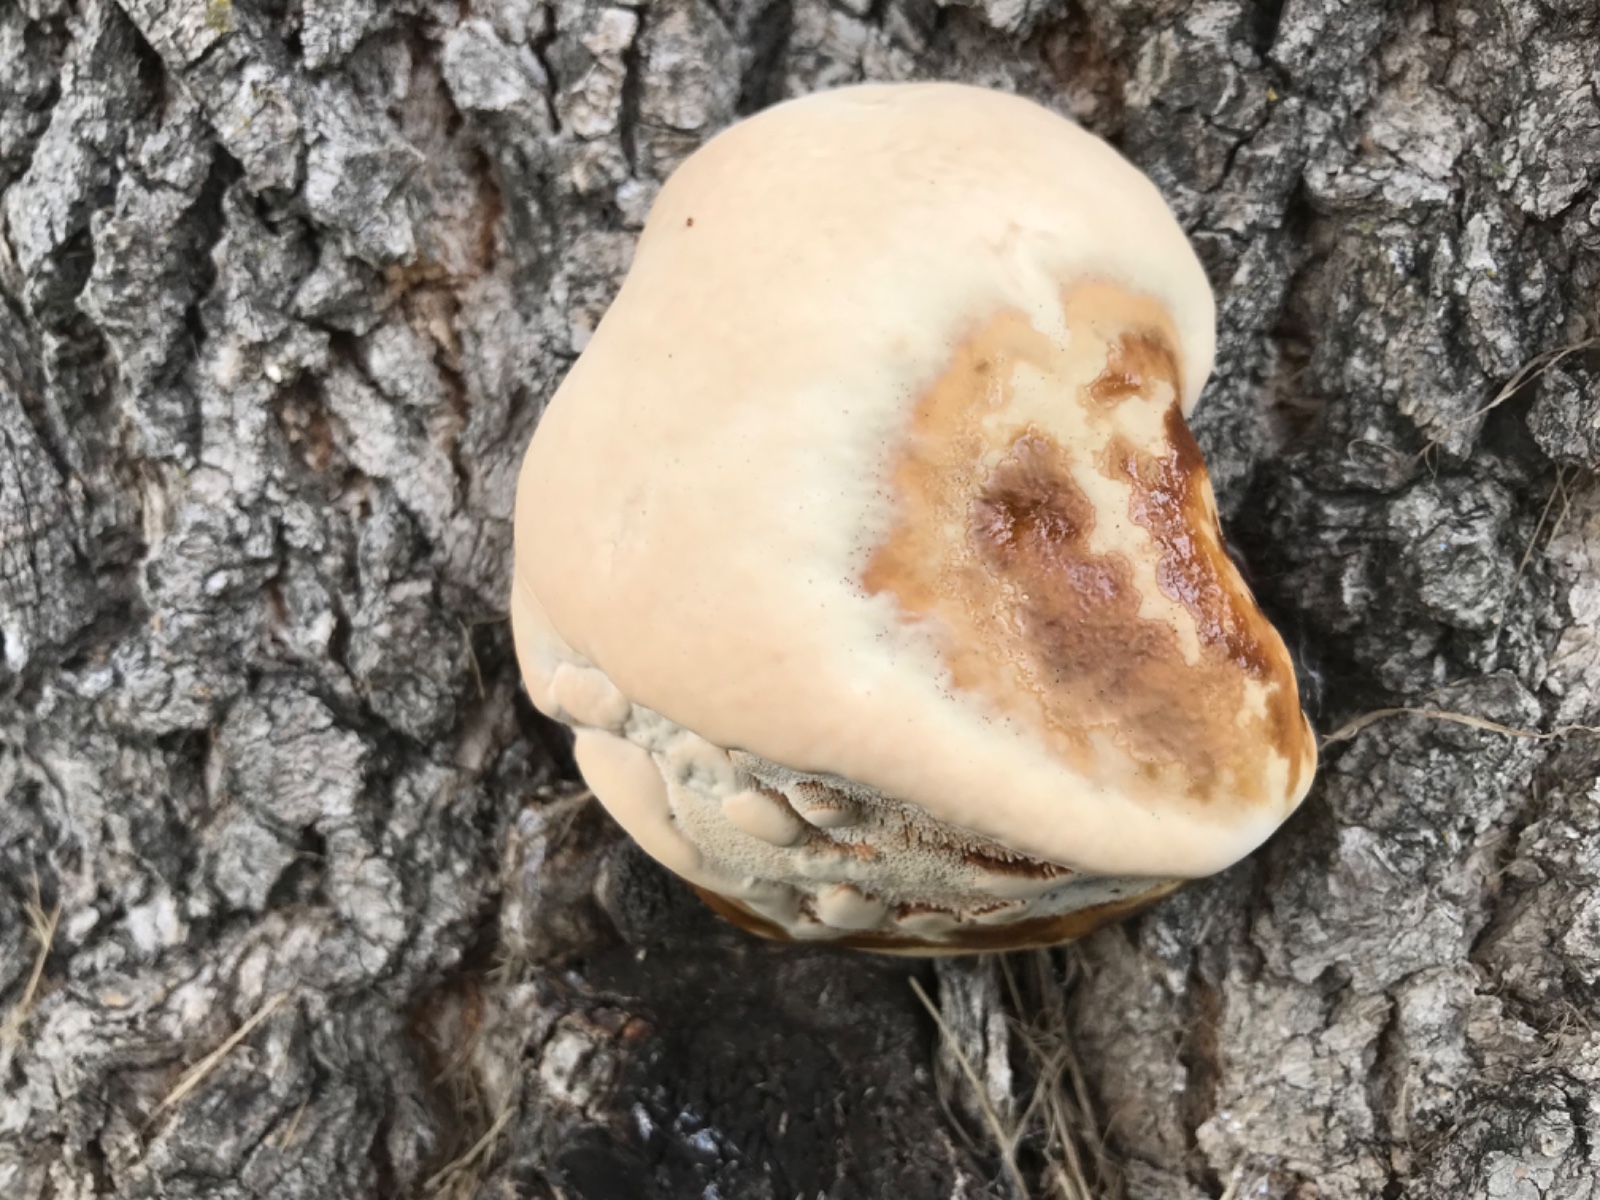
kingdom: Fungi
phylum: Basidiomycota
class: Agaricomycetes
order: Polyporales
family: Polyporaceae
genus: Ganoderma
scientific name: Ganoderma resinaceum
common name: gyldenbrun lakporesvamp
